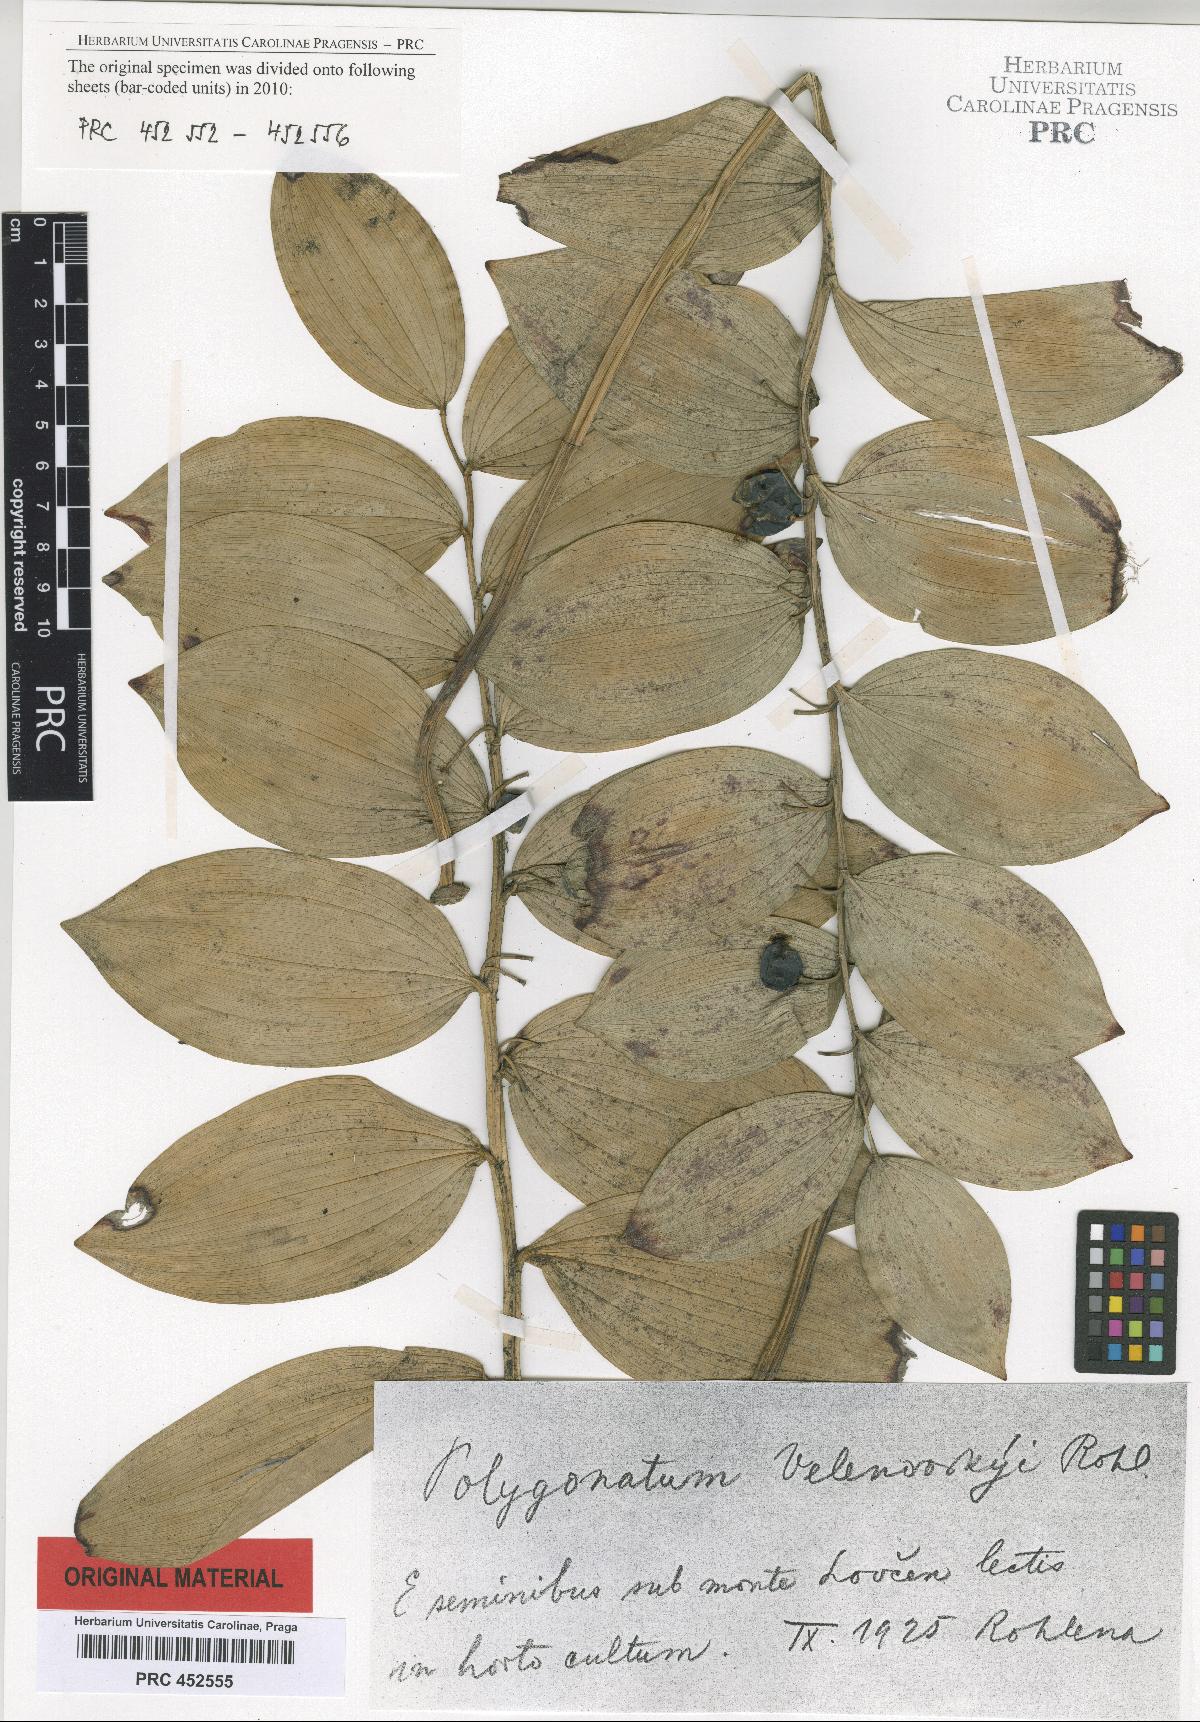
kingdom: Plantae
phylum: Tracheophyta
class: Liliopsida
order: Asparagales
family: Asparagaceae
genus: Polygonatum
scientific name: Polygonatum velenovskyi
